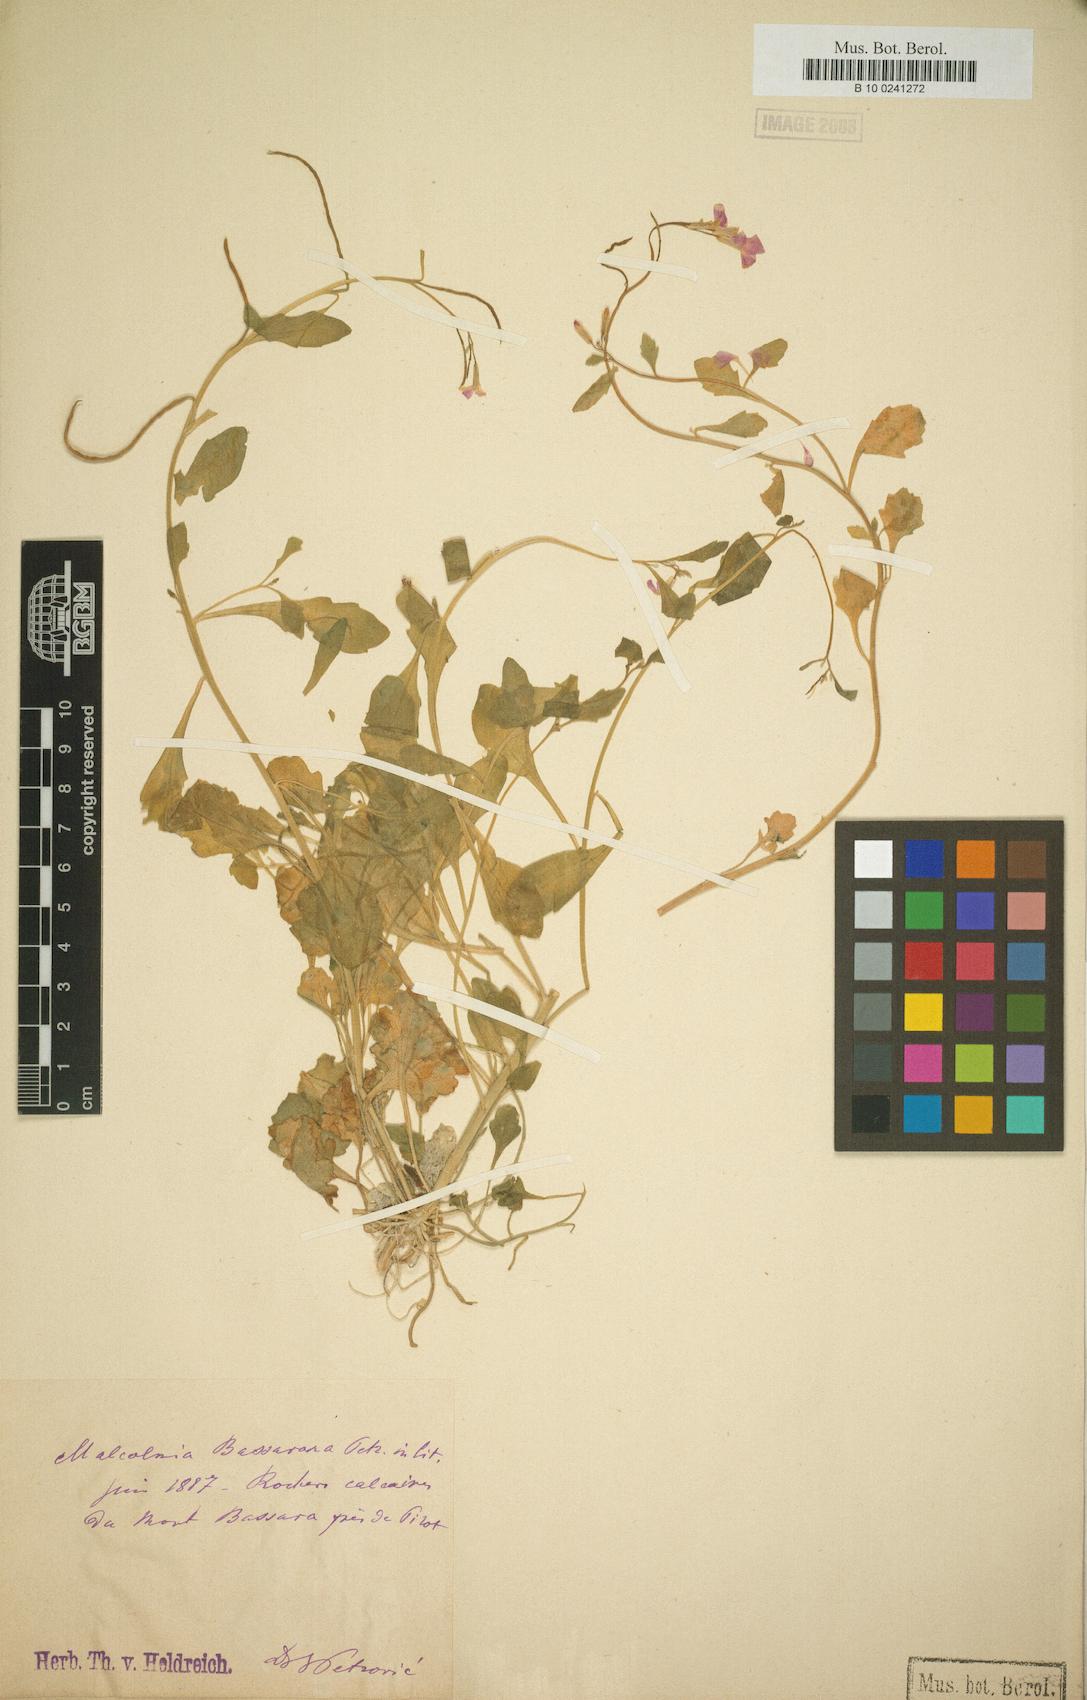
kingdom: Plantae
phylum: Tracheophyta
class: Magnoliopsida
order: Brassicales
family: Brassicaceae
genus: Malcolmia
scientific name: Malcolmia orsiniana
